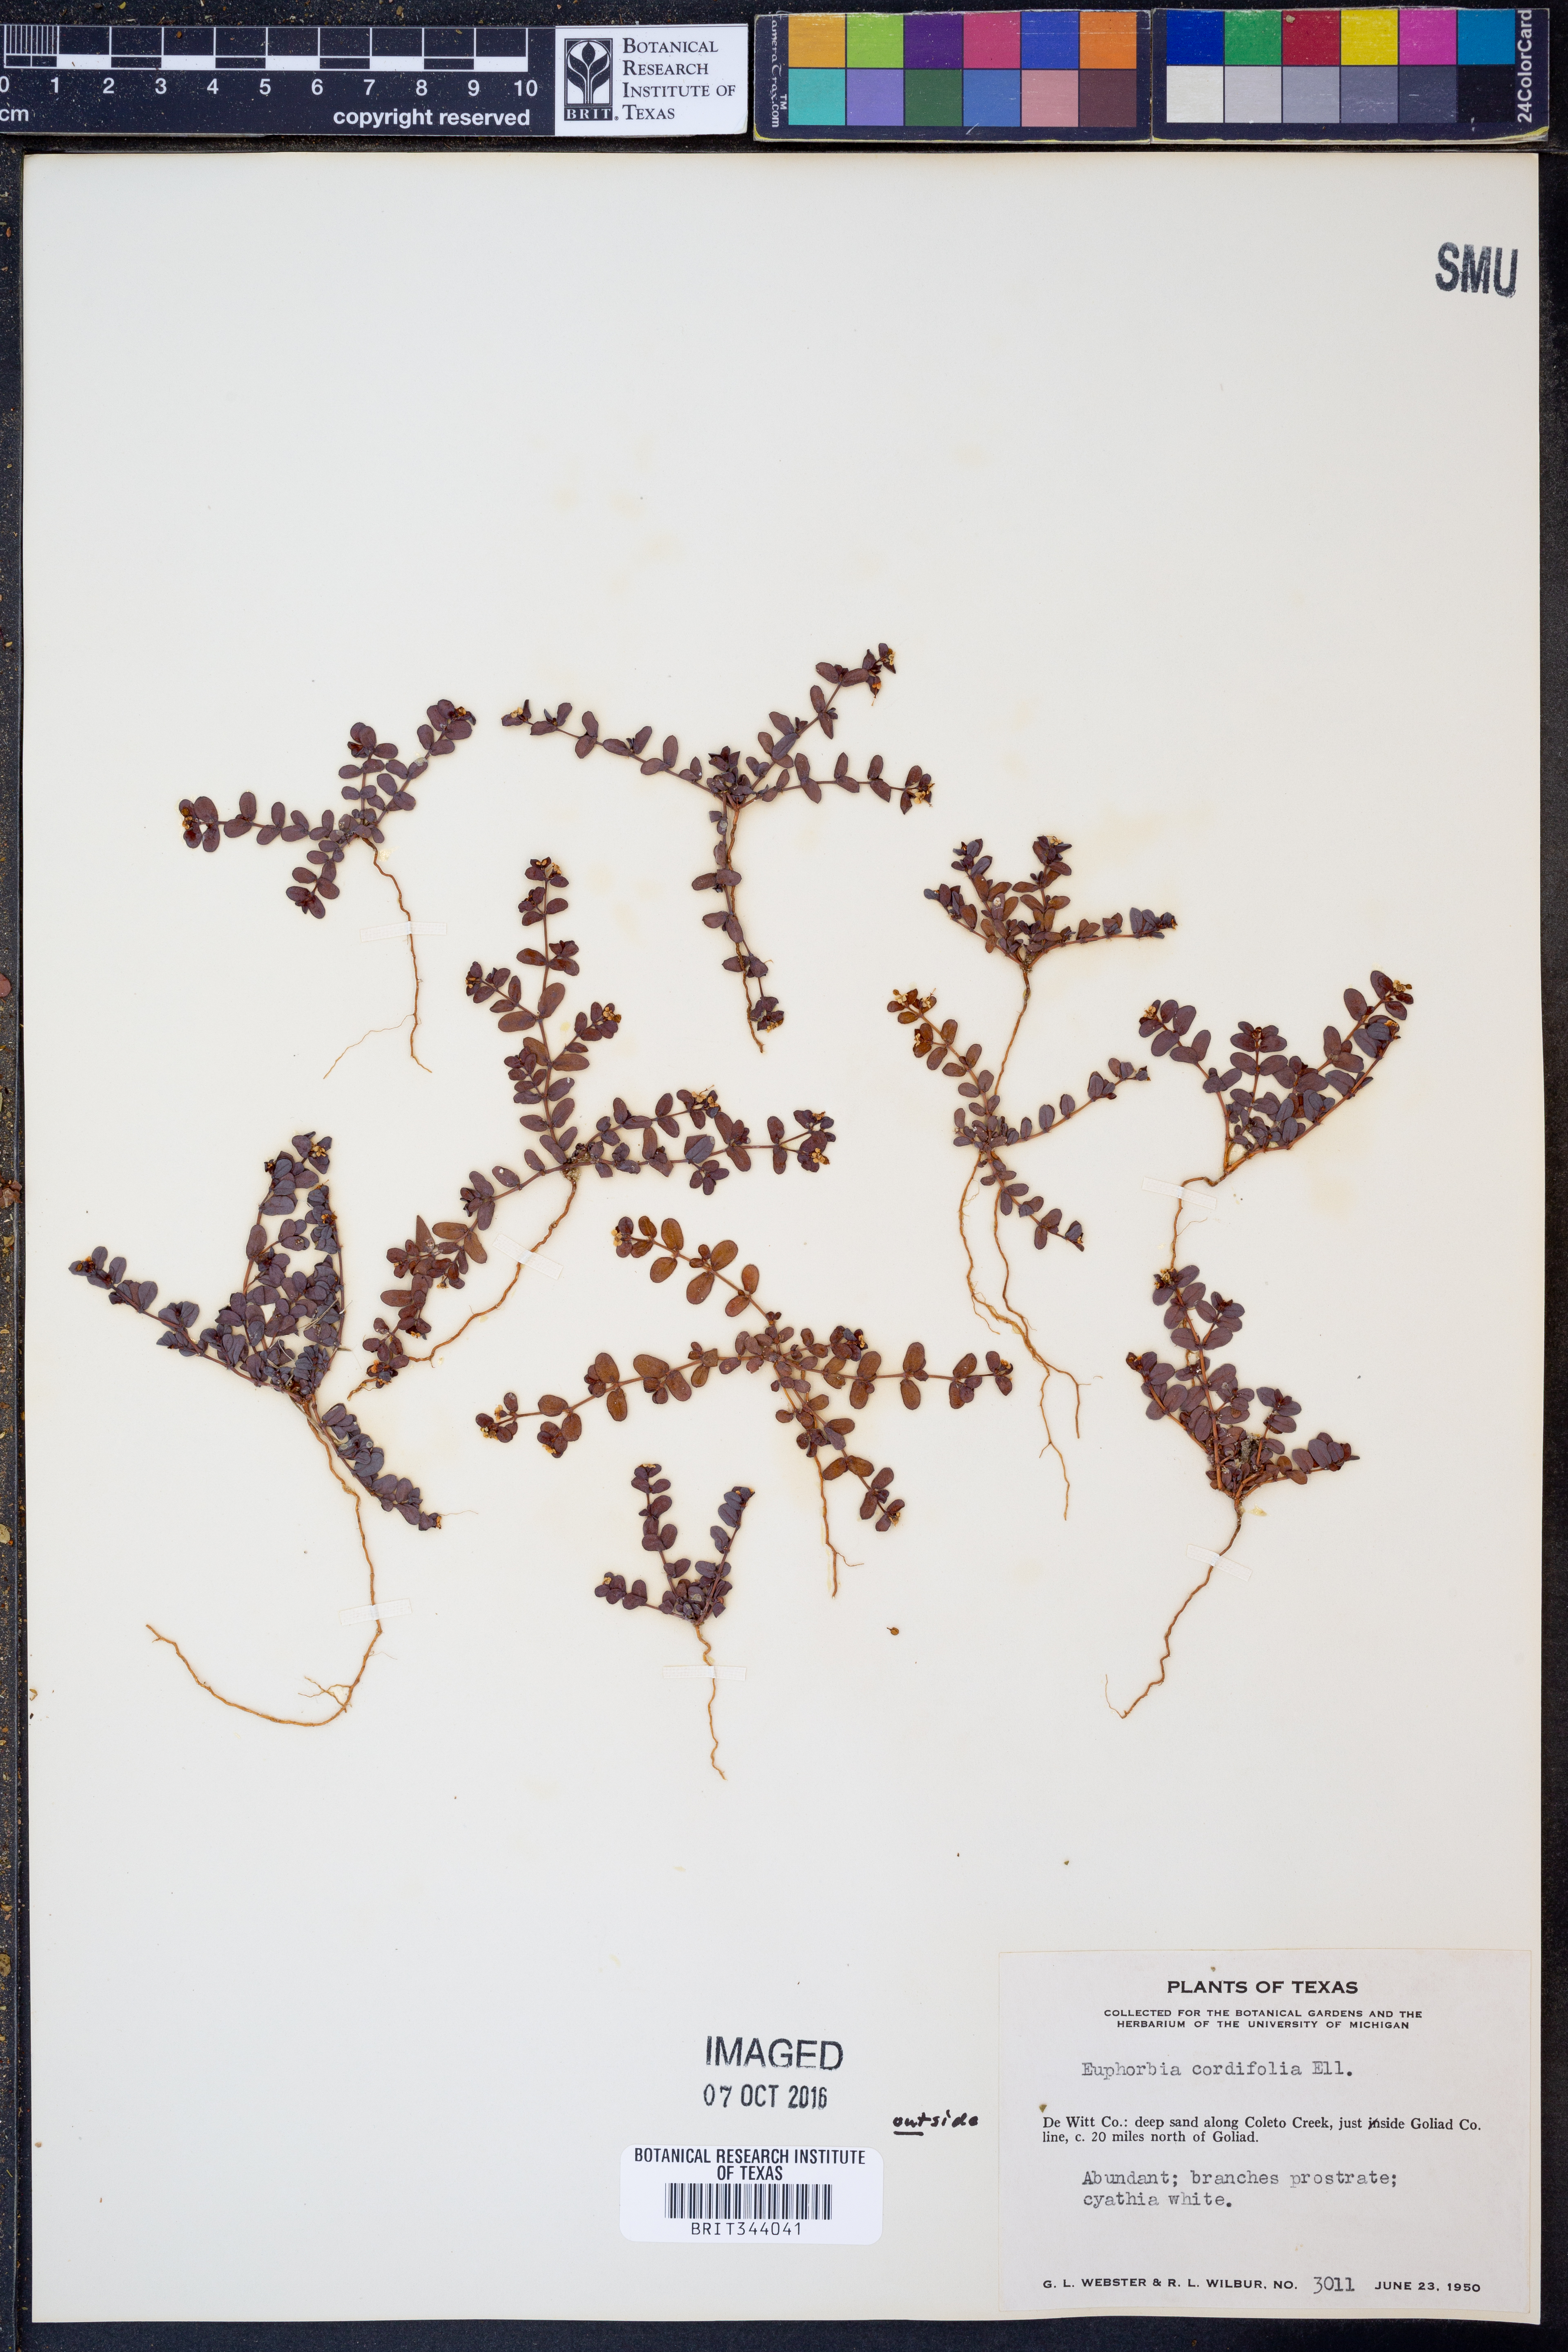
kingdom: Plantae
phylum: Tracheophyta
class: Magnoliopsida
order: Malpighiales
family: Euphorbiaceae
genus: Euphorbia
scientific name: Euphorbia cordifolia
